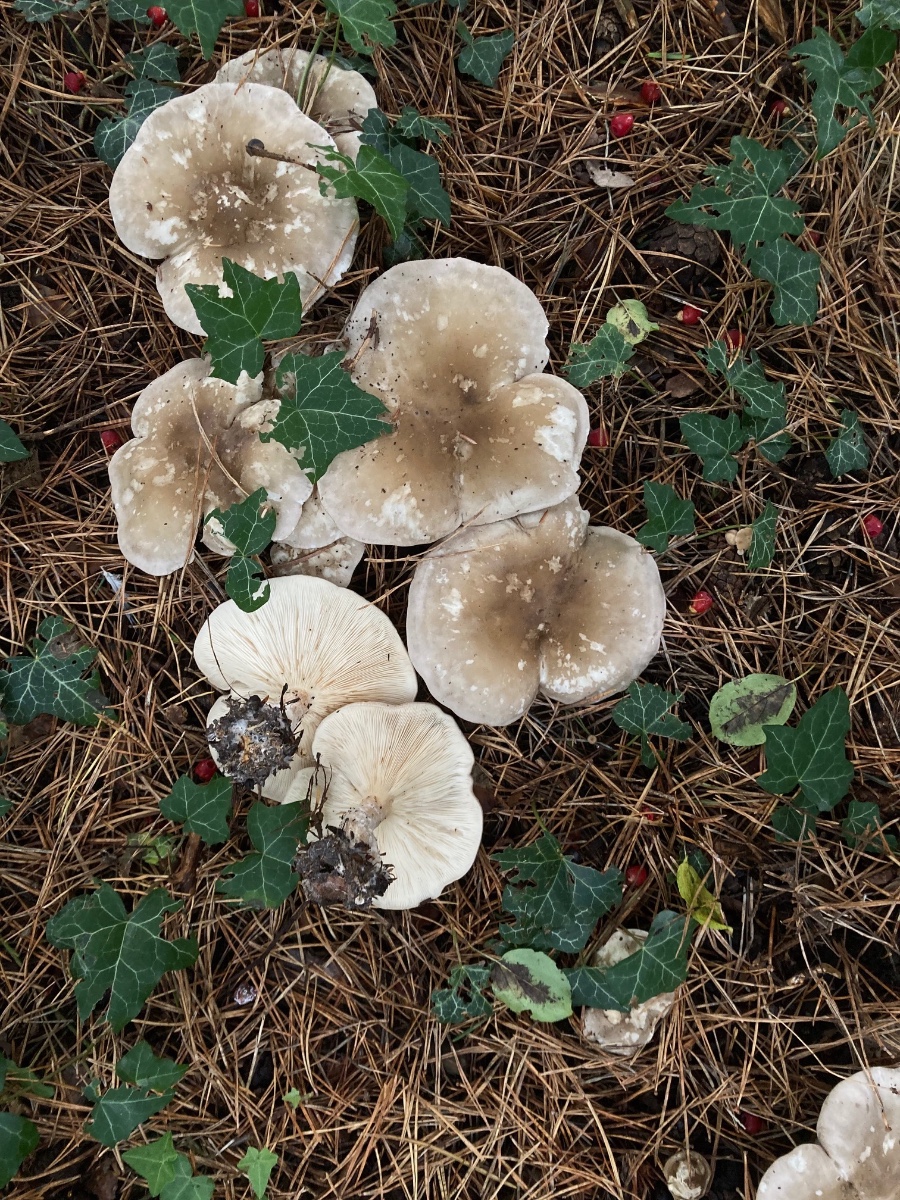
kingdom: Fungi
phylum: Basidiomycota
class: Agaricomycetes
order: Agaricales
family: Tricholomataceae
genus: Clitocybe
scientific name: Clitocybe nebularis
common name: tåge-tragthat
